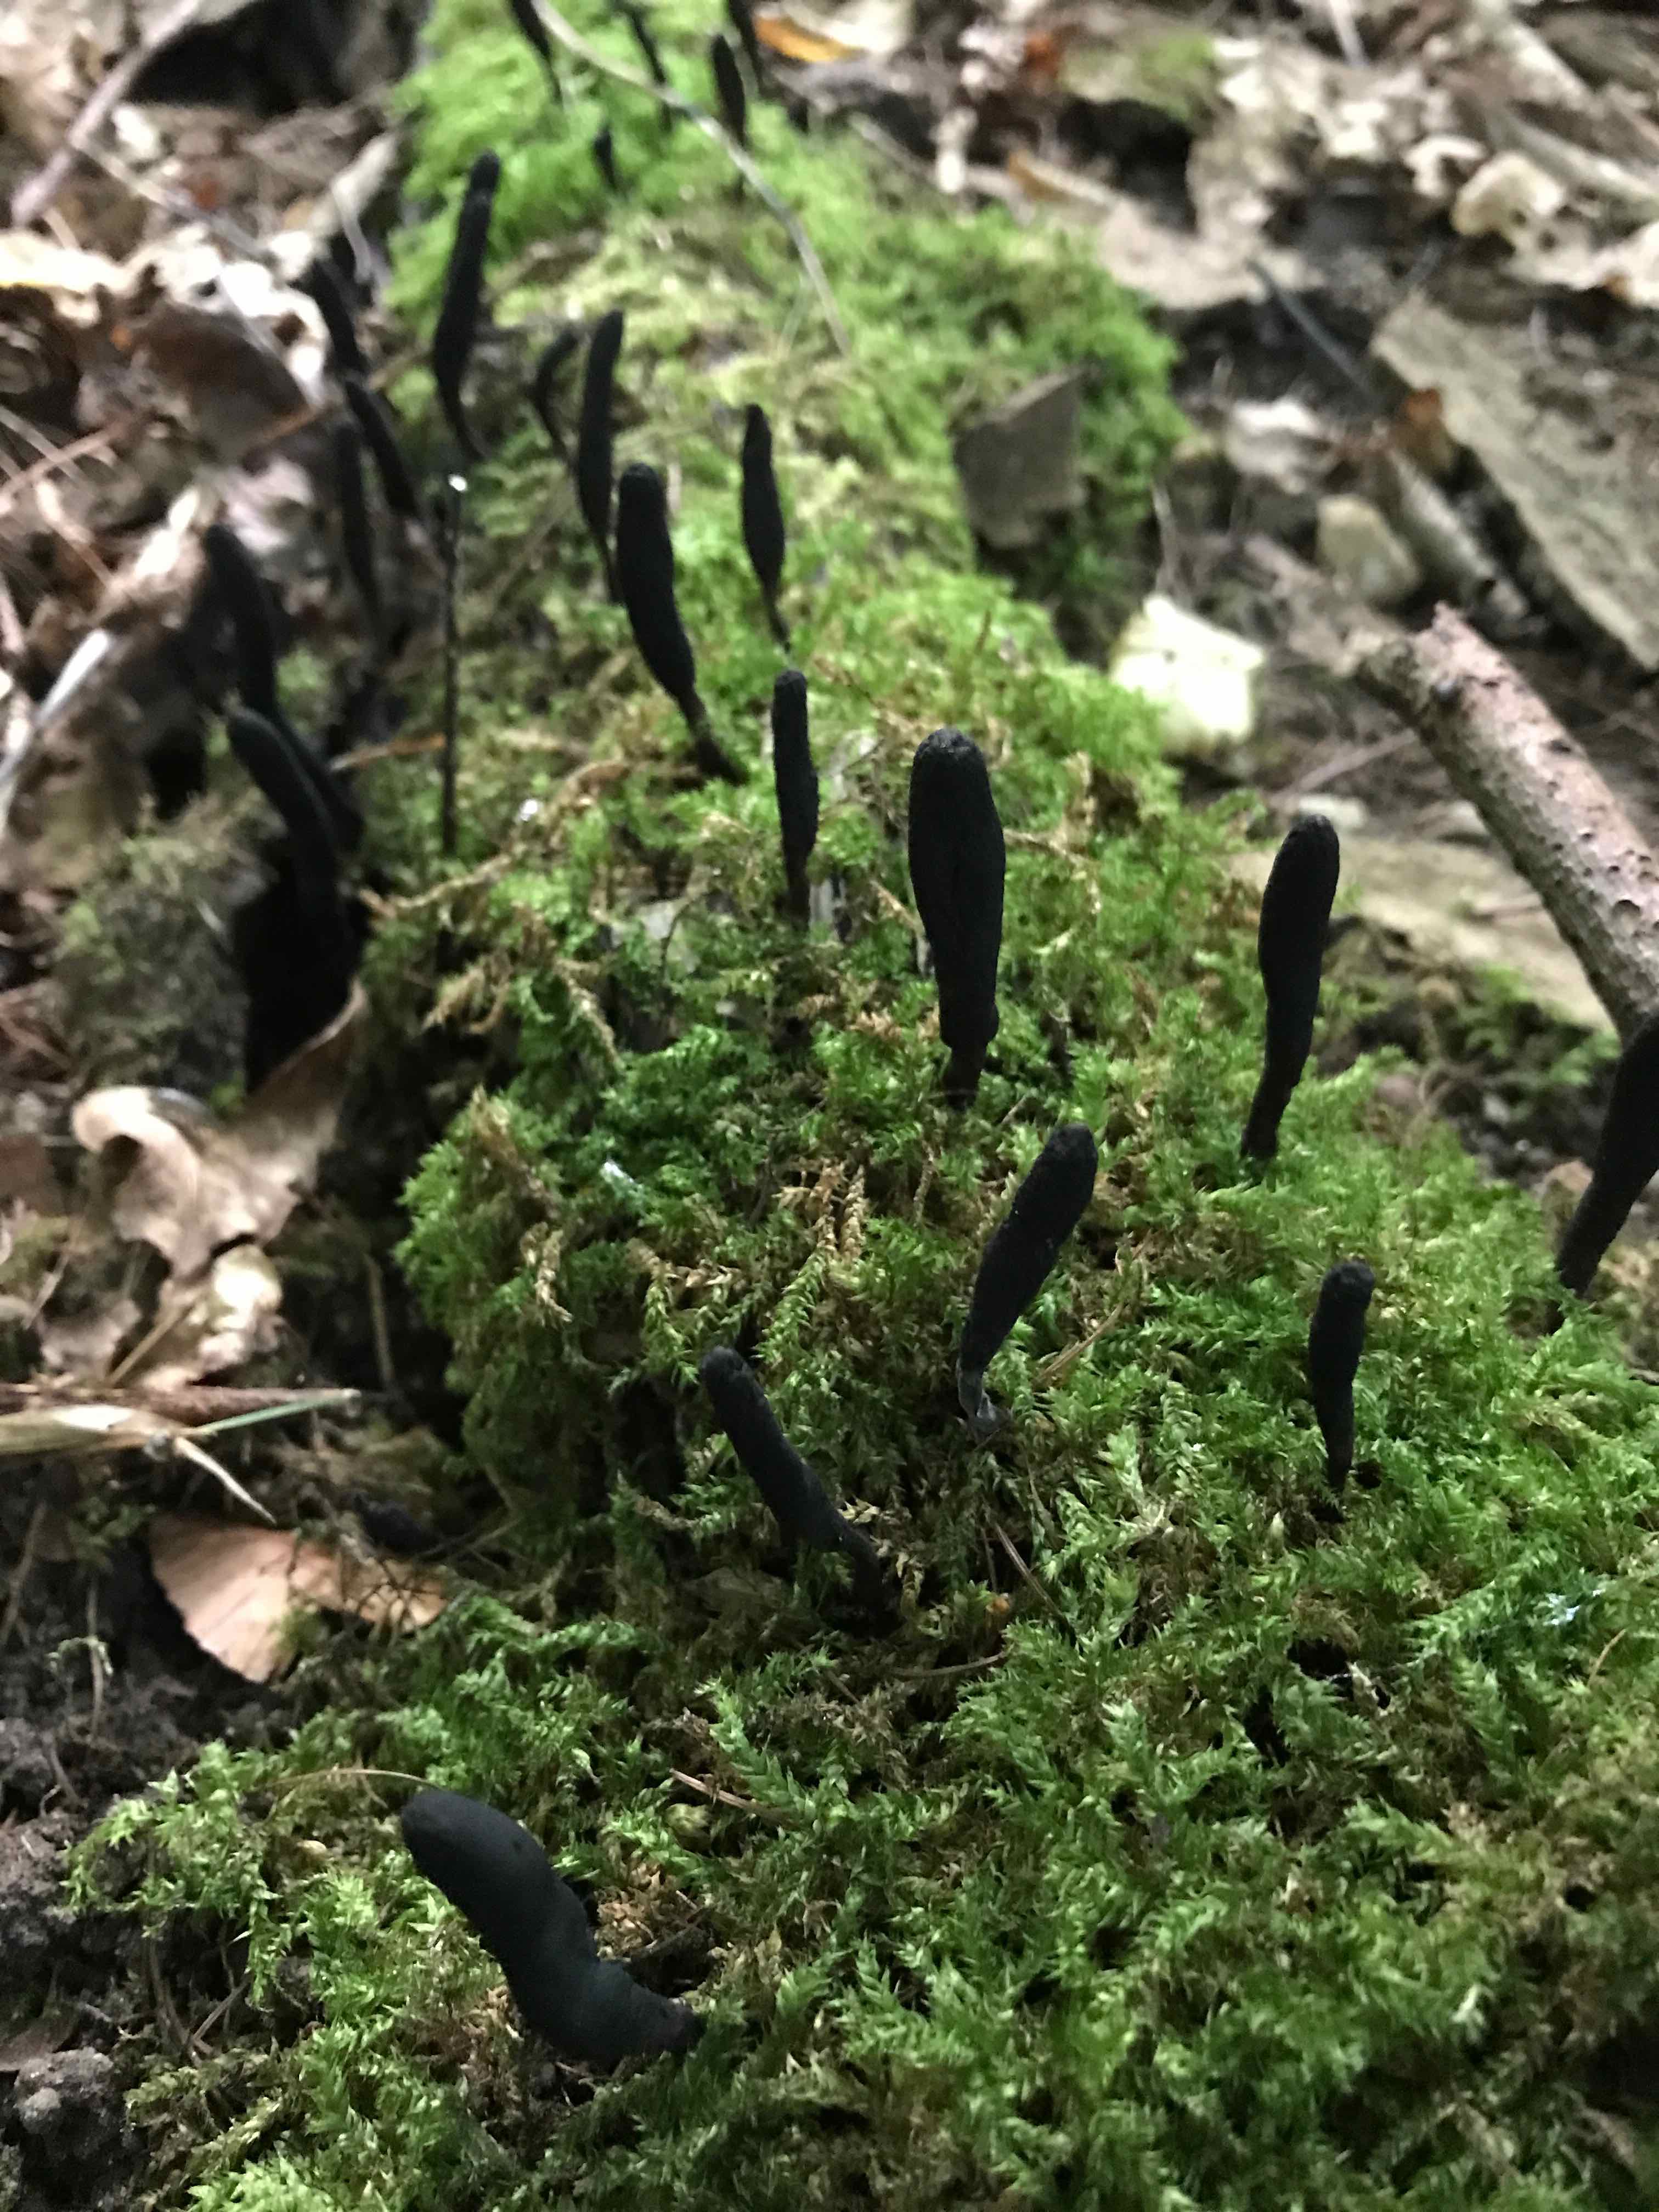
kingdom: Fungi
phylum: Ascomycota
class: Sordariomycetes
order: Xylariales
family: Xylariaceae
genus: Xylaria
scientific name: Xylaria longipes
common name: slank stødsvamp
